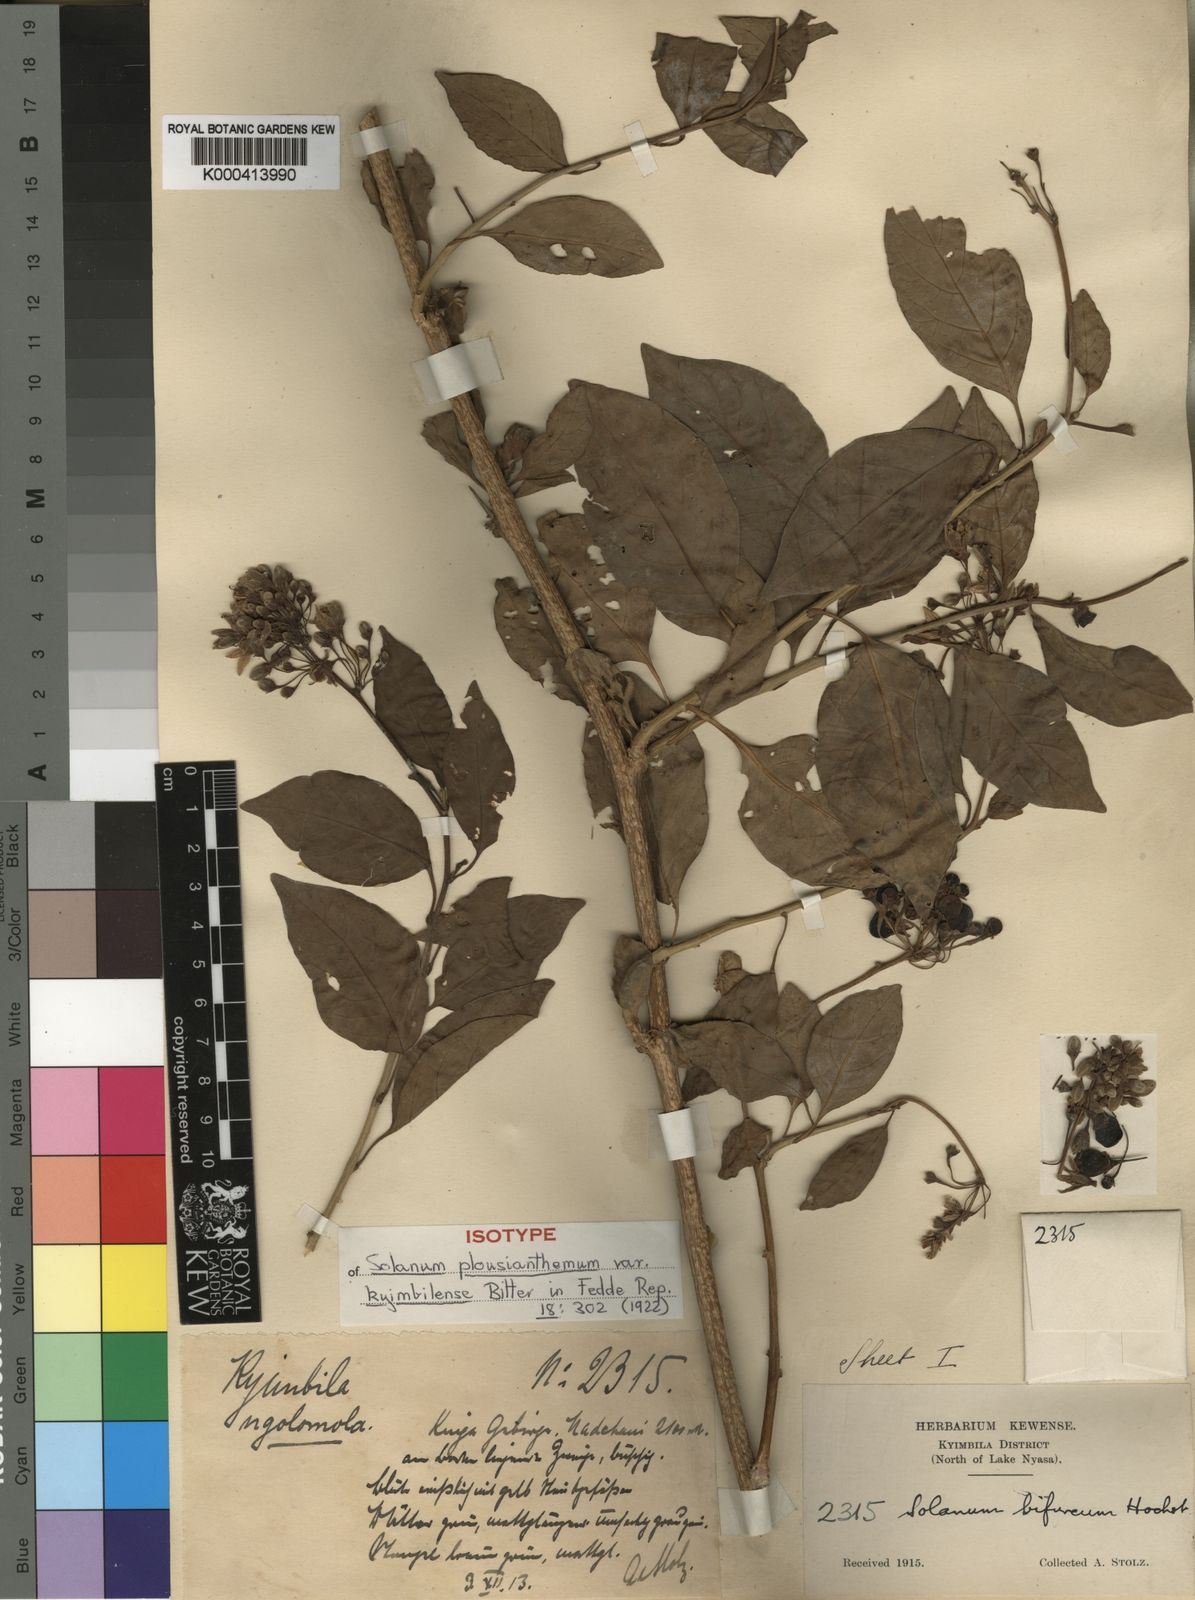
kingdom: Plantae
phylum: Tracheophyta
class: Magnoliopsida
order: Solanales
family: Solanaceae
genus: Solanum
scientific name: Solanum terminale
